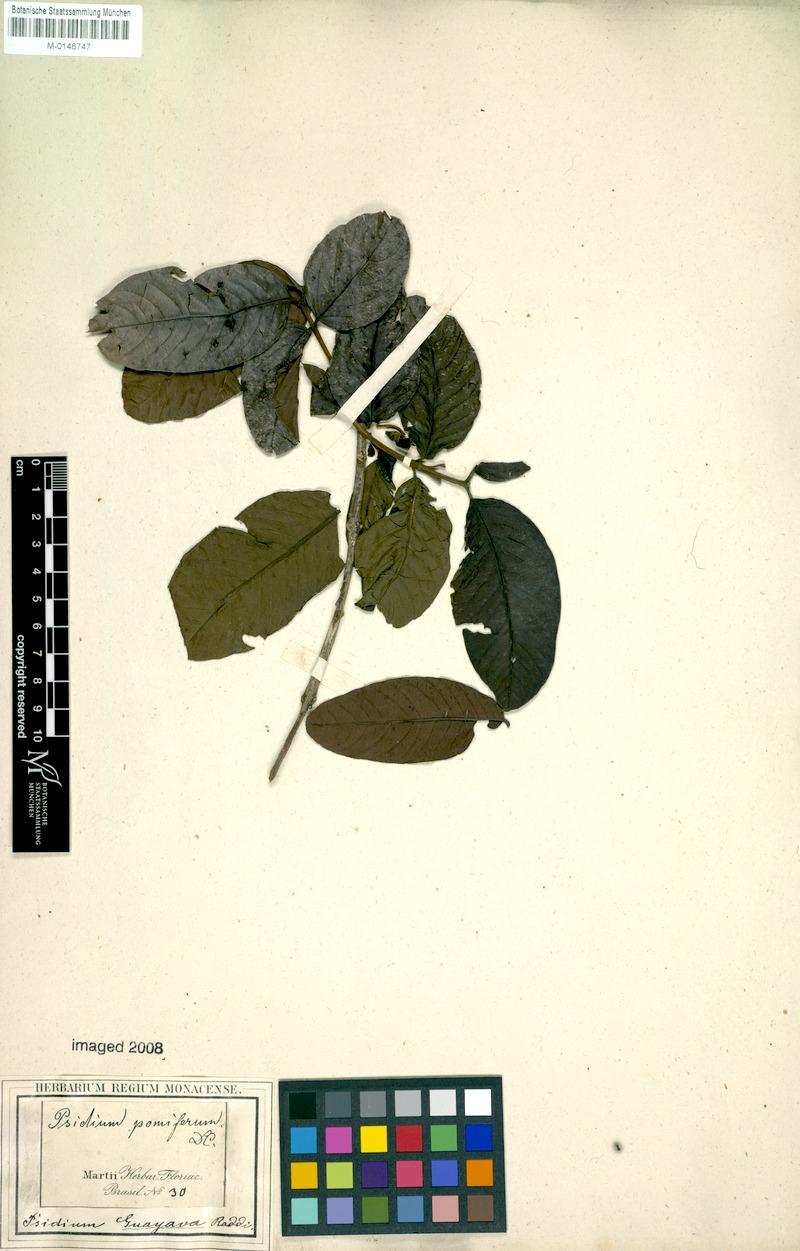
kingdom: Plantae
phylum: Tracheophyta
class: Magnoliopsida
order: Myrtales
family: Myrtaceae
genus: Psidium
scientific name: Psidium guajava
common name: Guava
